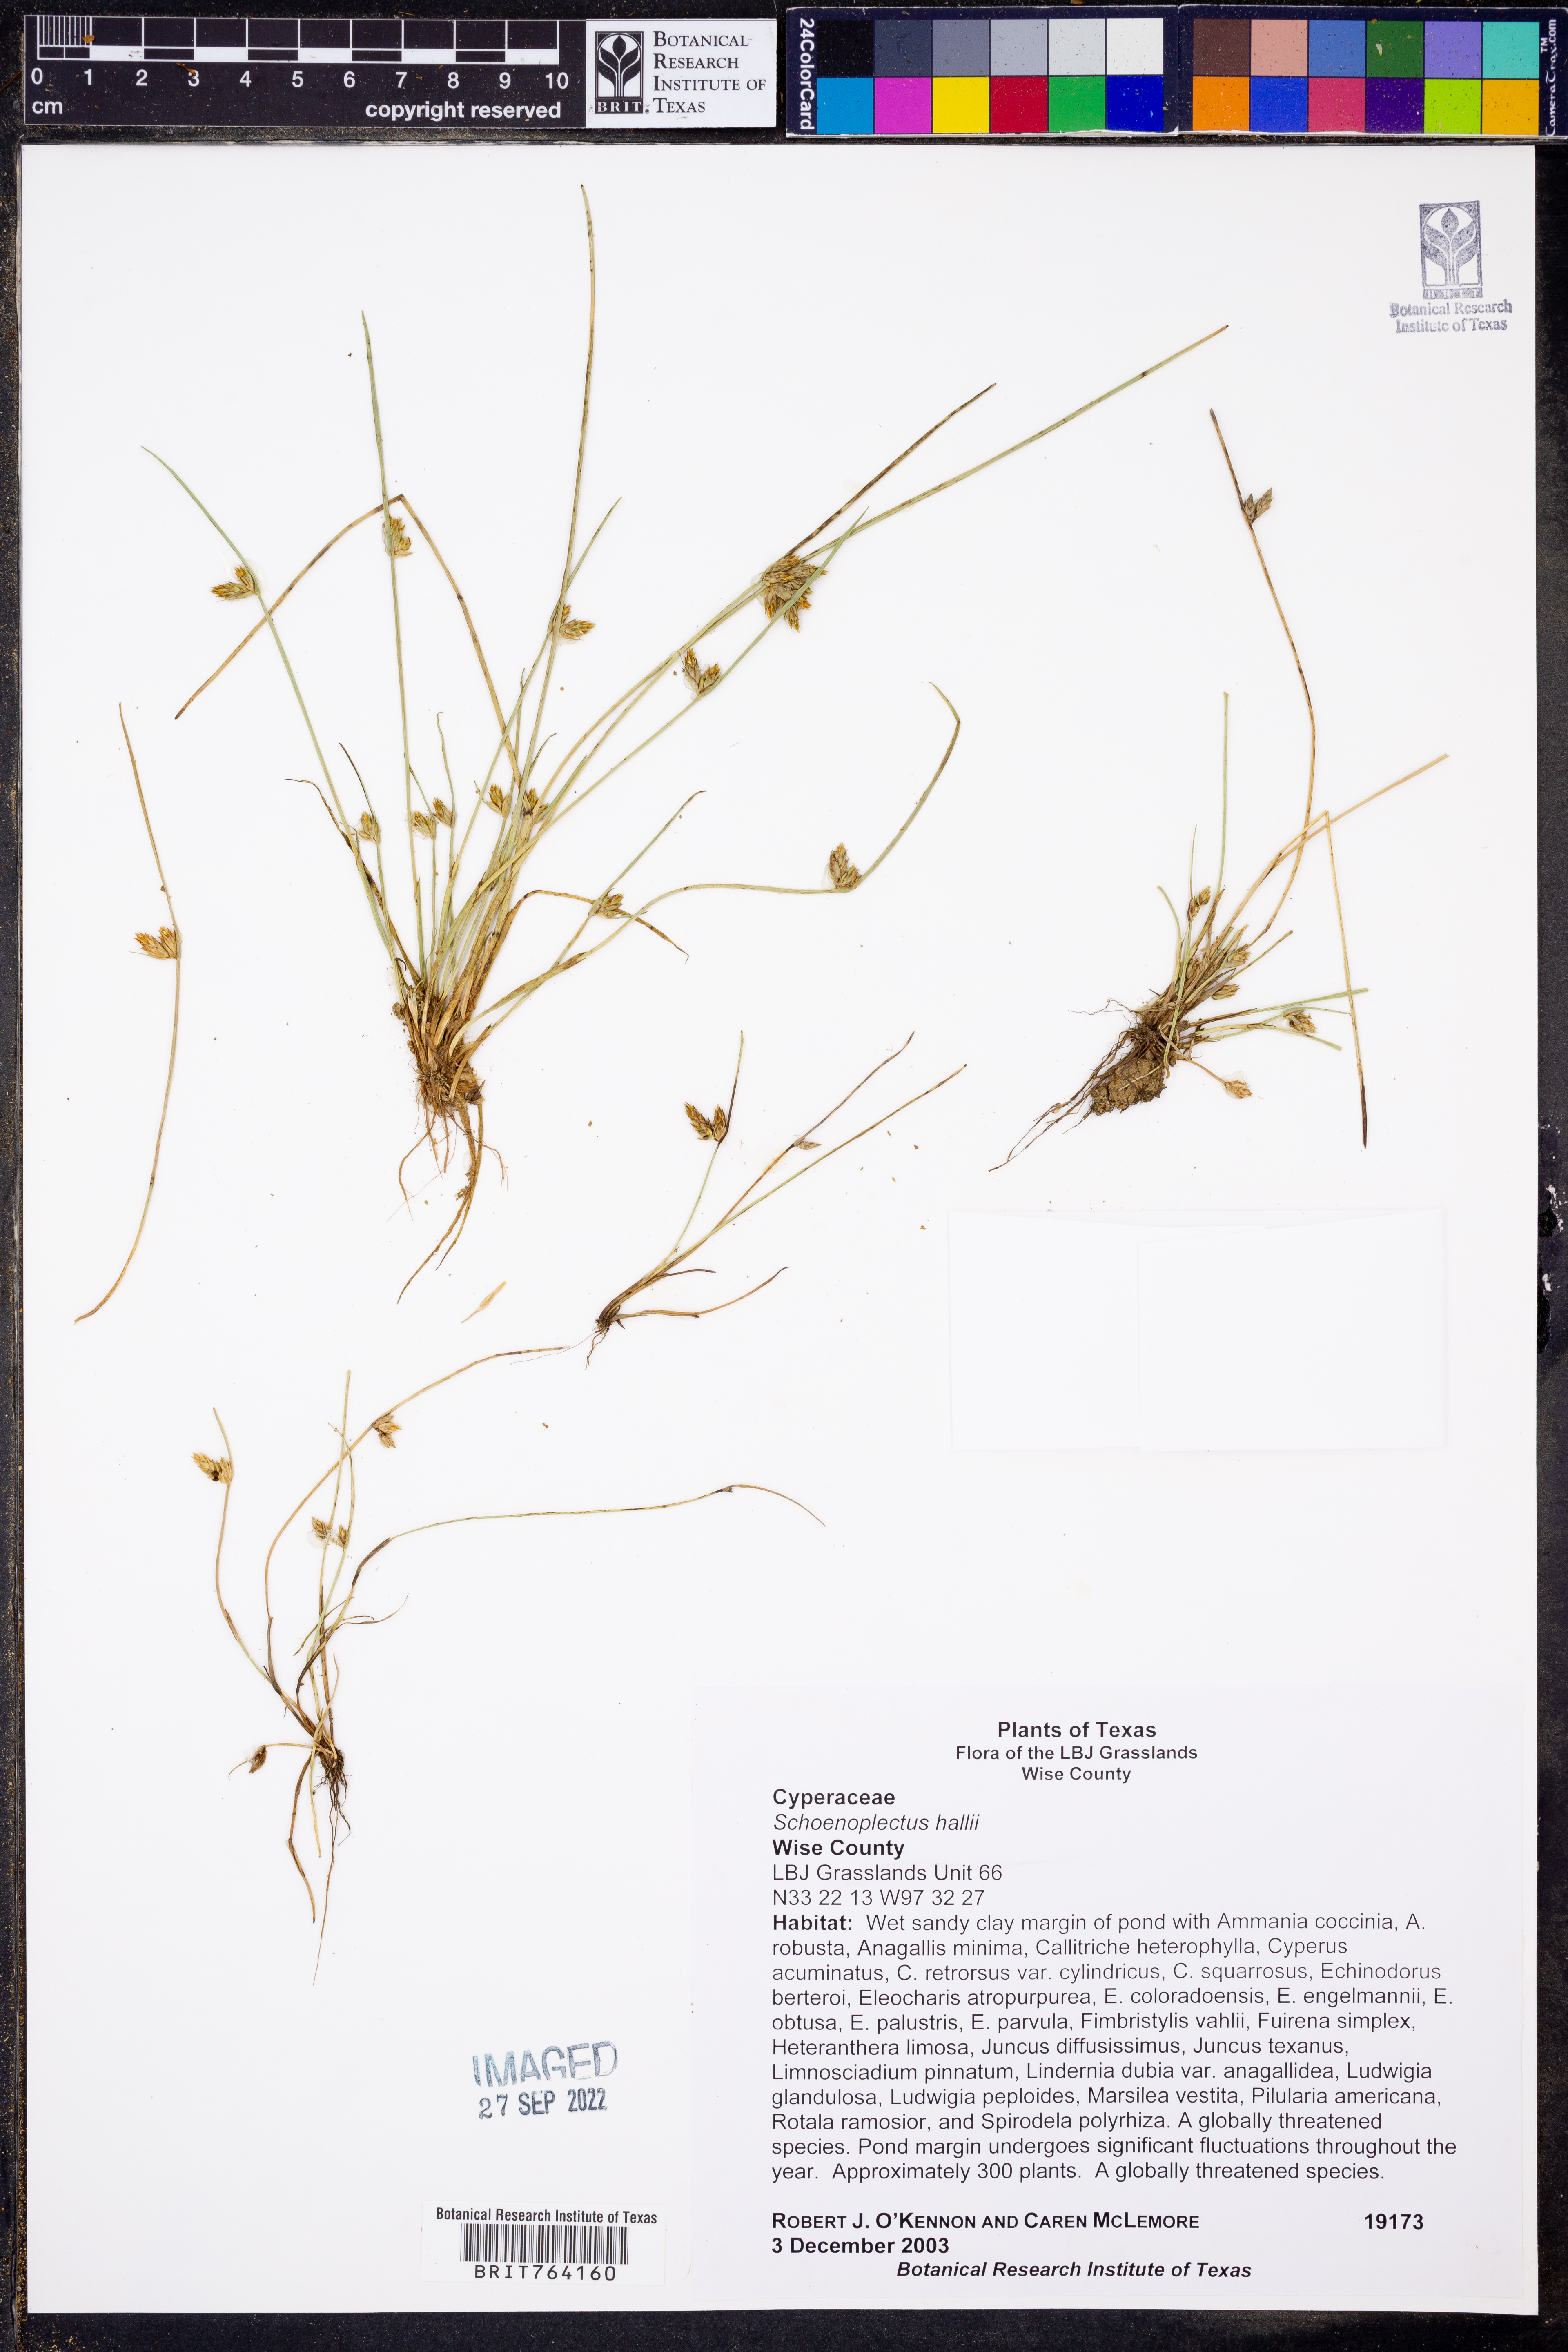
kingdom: Plantae
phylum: Tracheophyta
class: Liliopsida
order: Poales
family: Cyperaceae
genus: Schoenoplectiella
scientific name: Schoenoplectiella hallii
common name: Hall's bullrush
